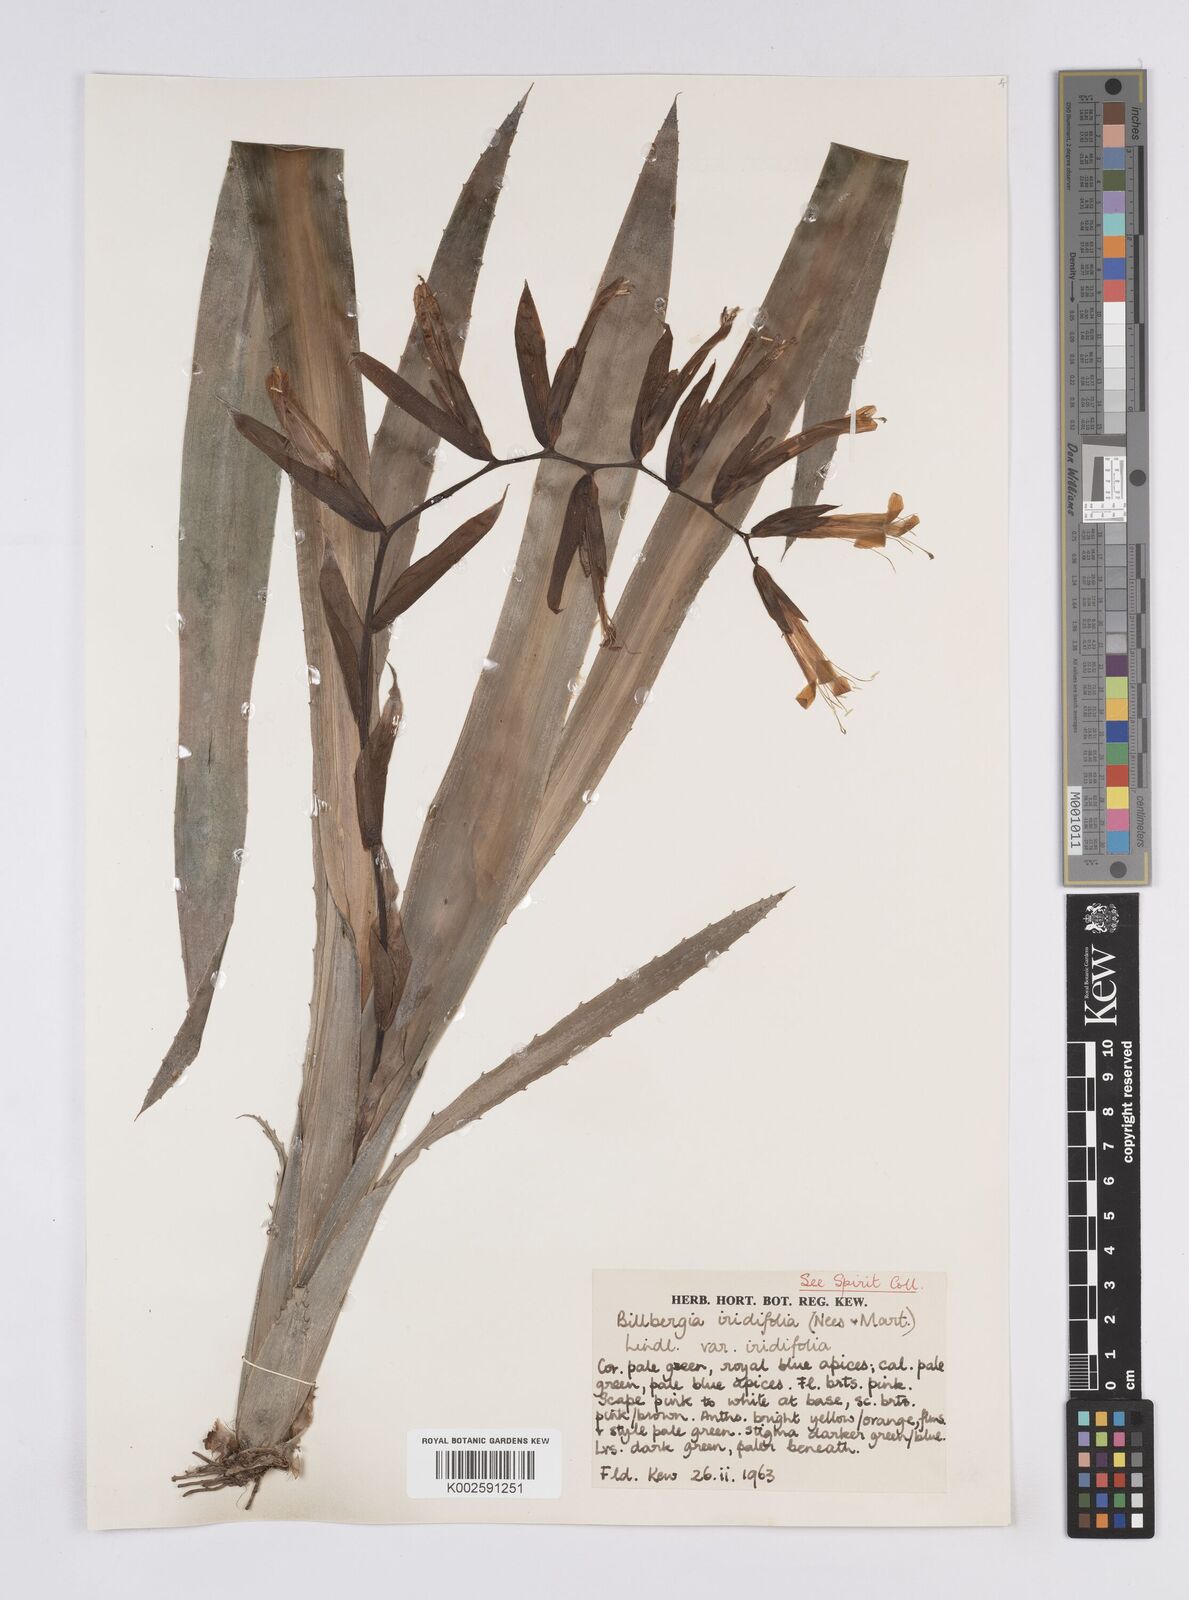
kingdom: Plantae
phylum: Tracheophyta
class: Liliopsida
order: Poales
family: Bromeliaceae
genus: Billbergia
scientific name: Billbergia
